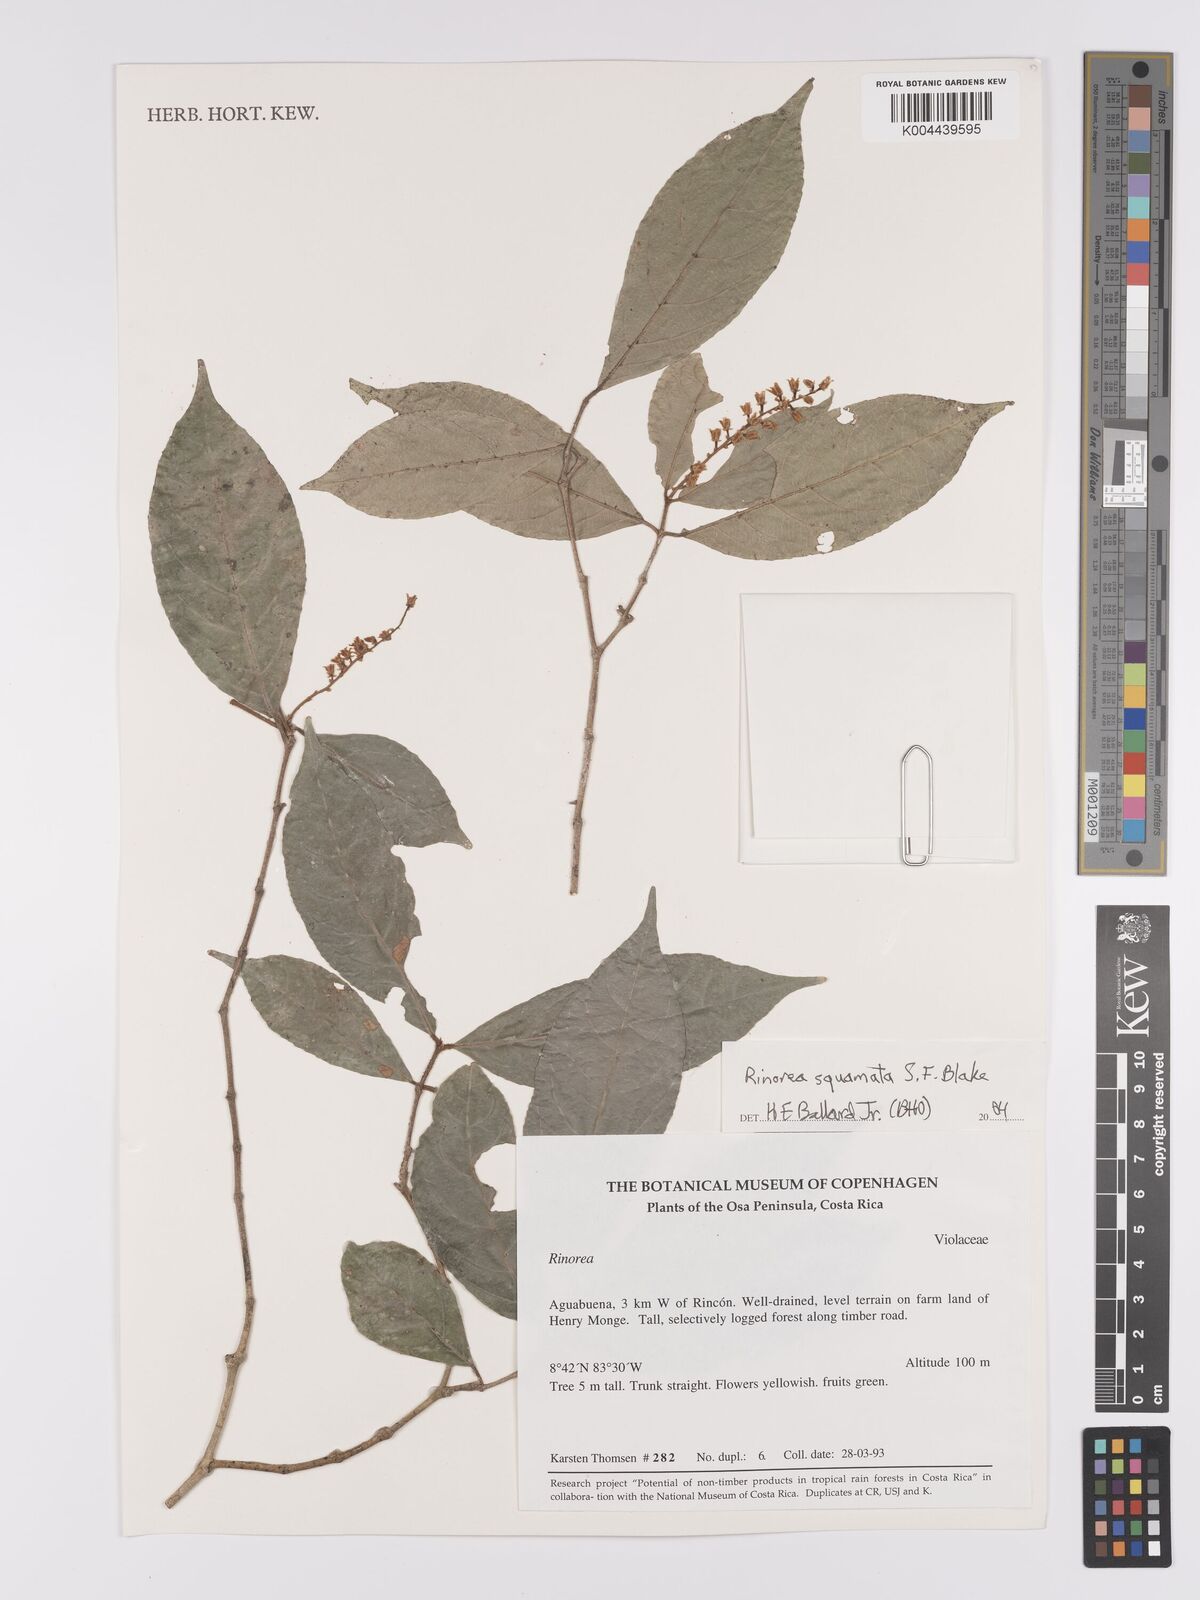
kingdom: Plantae
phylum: Tracheophyta
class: Magnoliopsida
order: Malpighiales
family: Violaceae
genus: Rinorea
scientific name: Rinorea squamata
